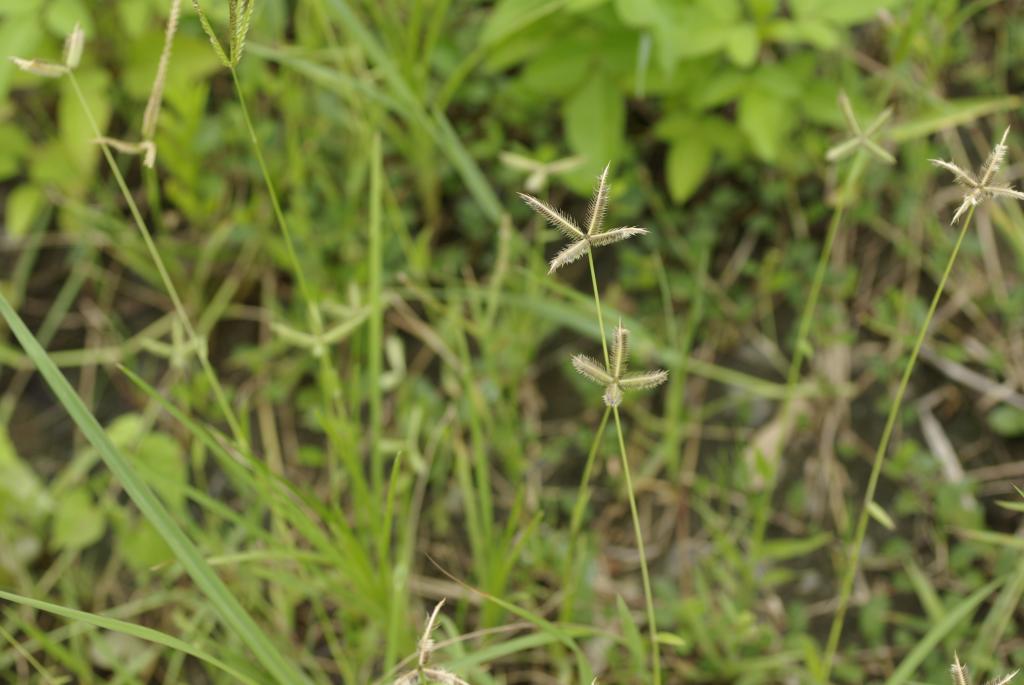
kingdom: Plantae
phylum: Tracheophyta
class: Liliopsida
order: Poales
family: Poaceae
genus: Dactyloctenium
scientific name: Dactyloctenium aegyptium
